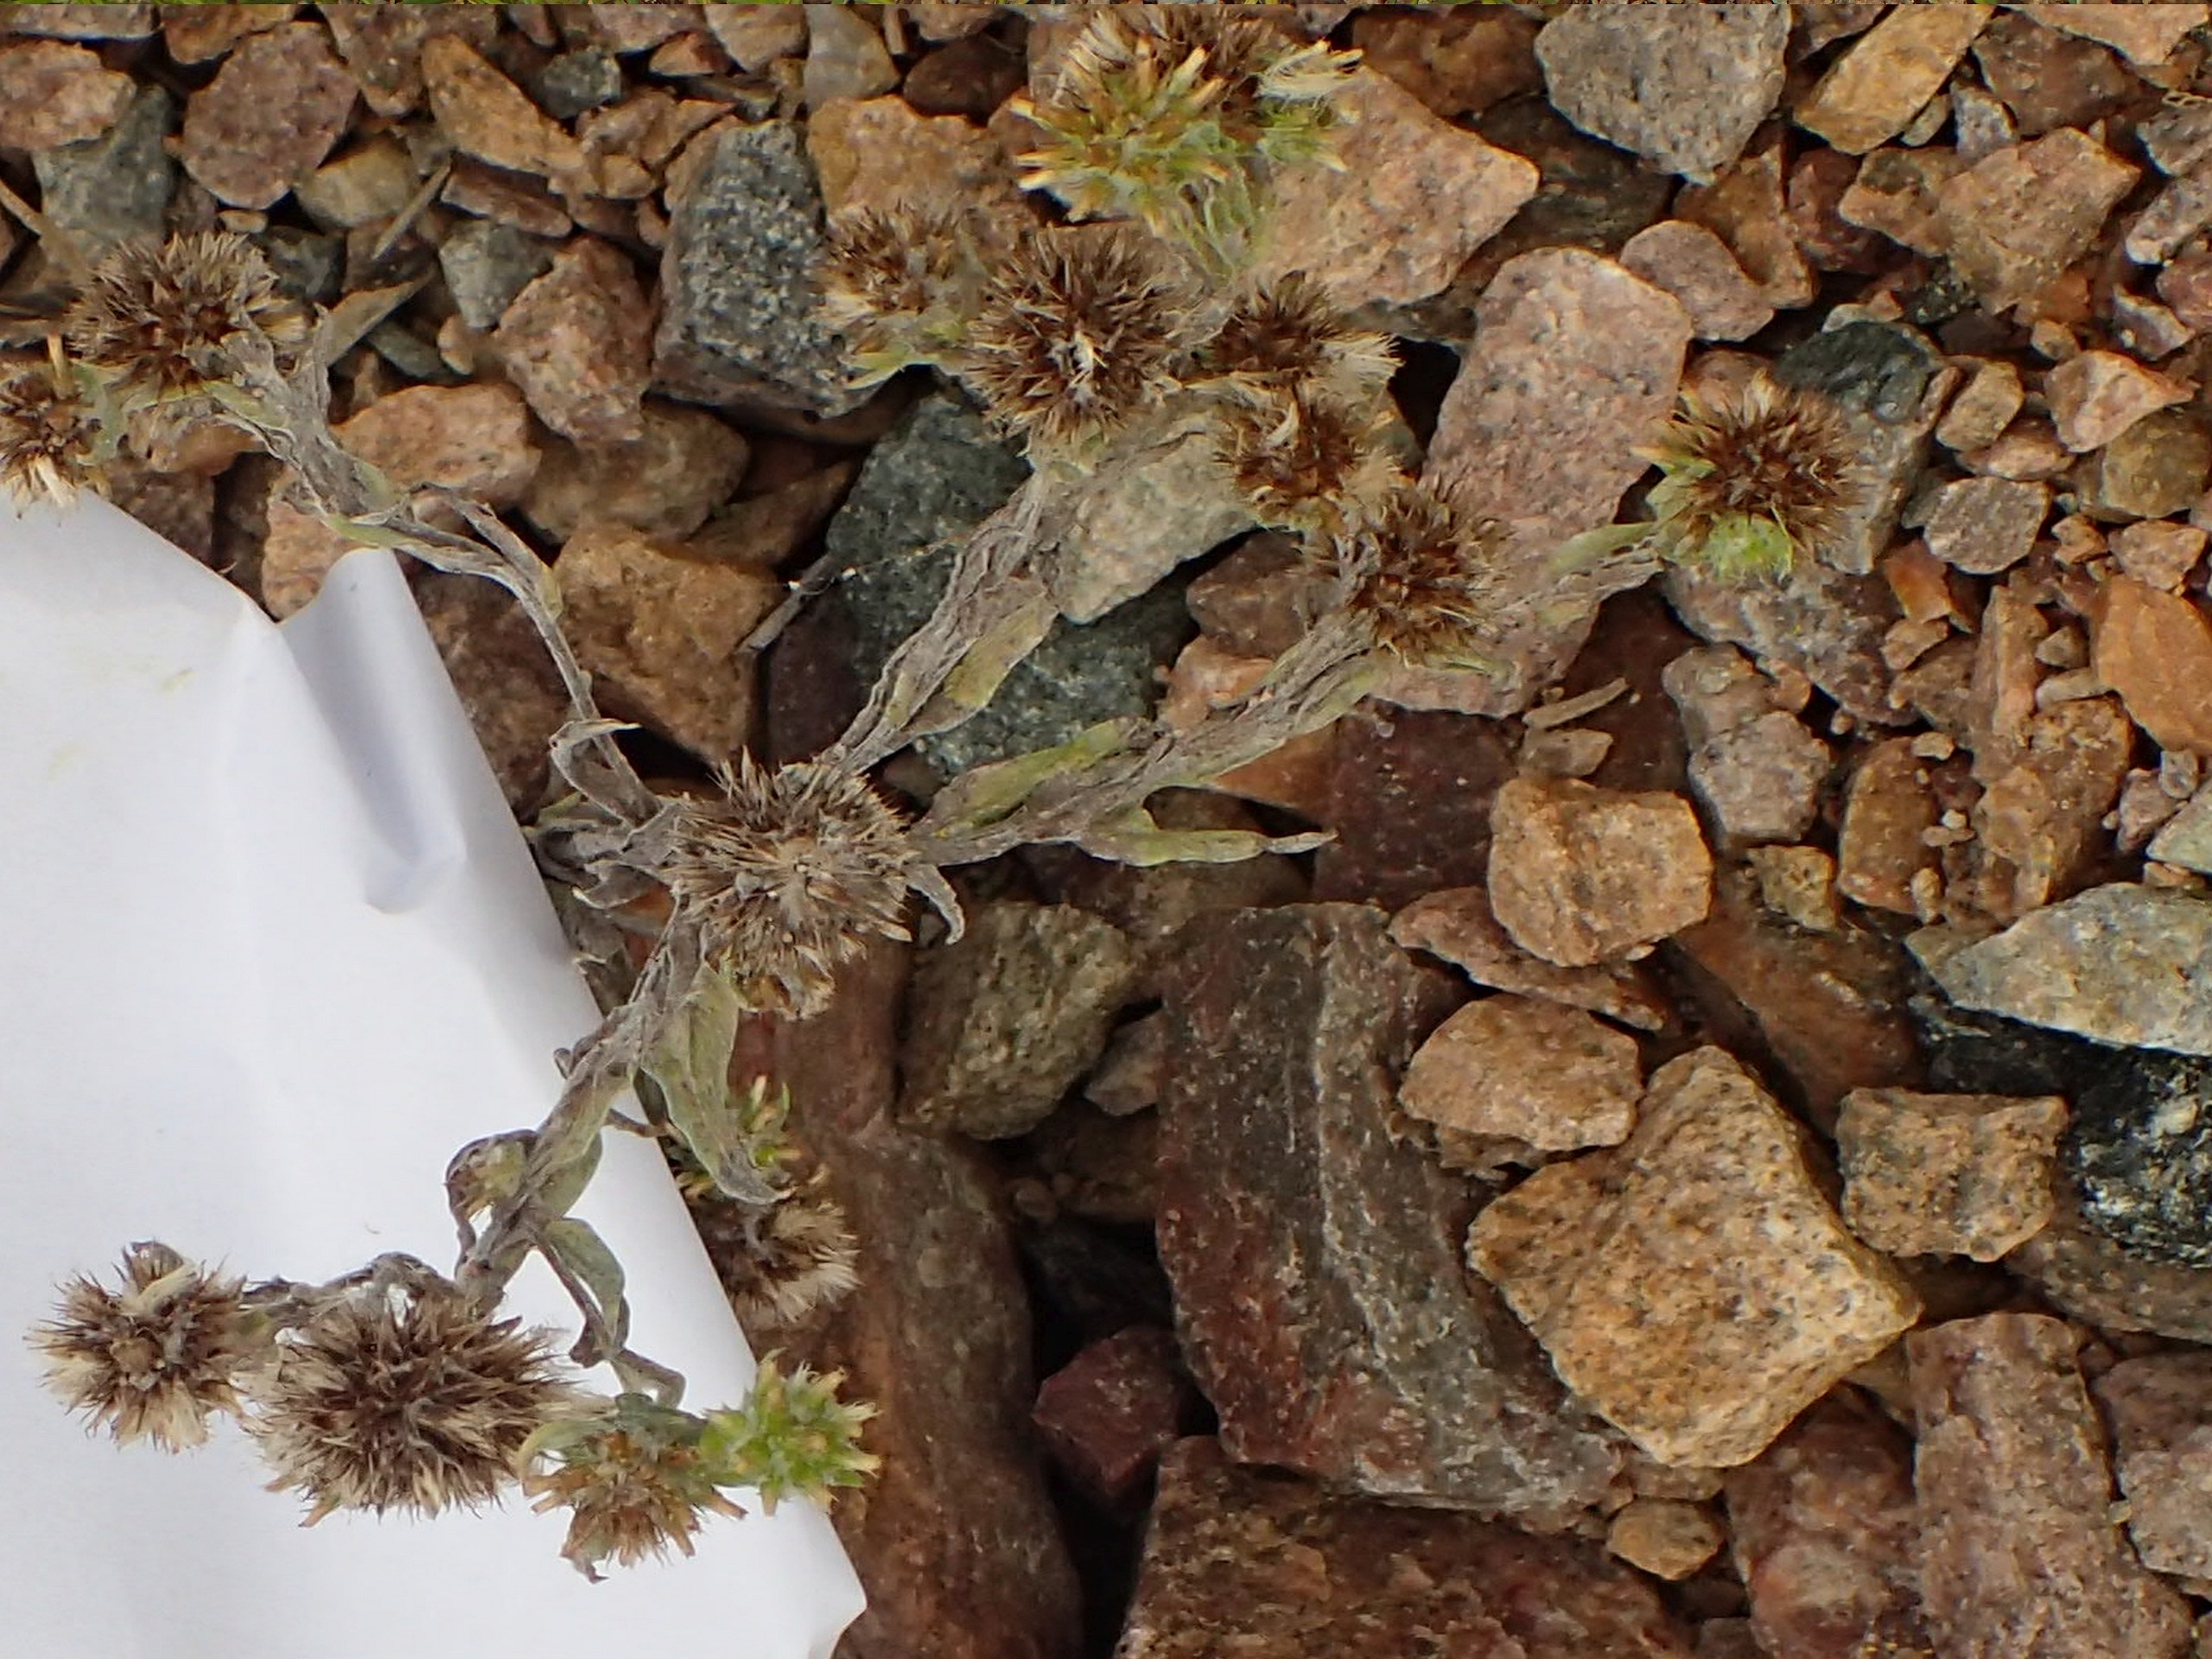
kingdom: Plantae
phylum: Tracheophyta
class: Magnoliopsida
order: Asterales
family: Asteraceae
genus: Filago
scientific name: Filago germanica
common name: Kugle-museurt
